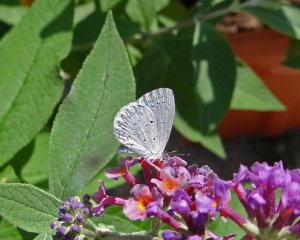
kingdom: Animalia
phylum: Arthropoda
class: Insecta
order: Lepidoptera
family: Lycaenidae
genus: Cyaniris
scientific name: Cyaniris neglecta
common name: Summer Azure
